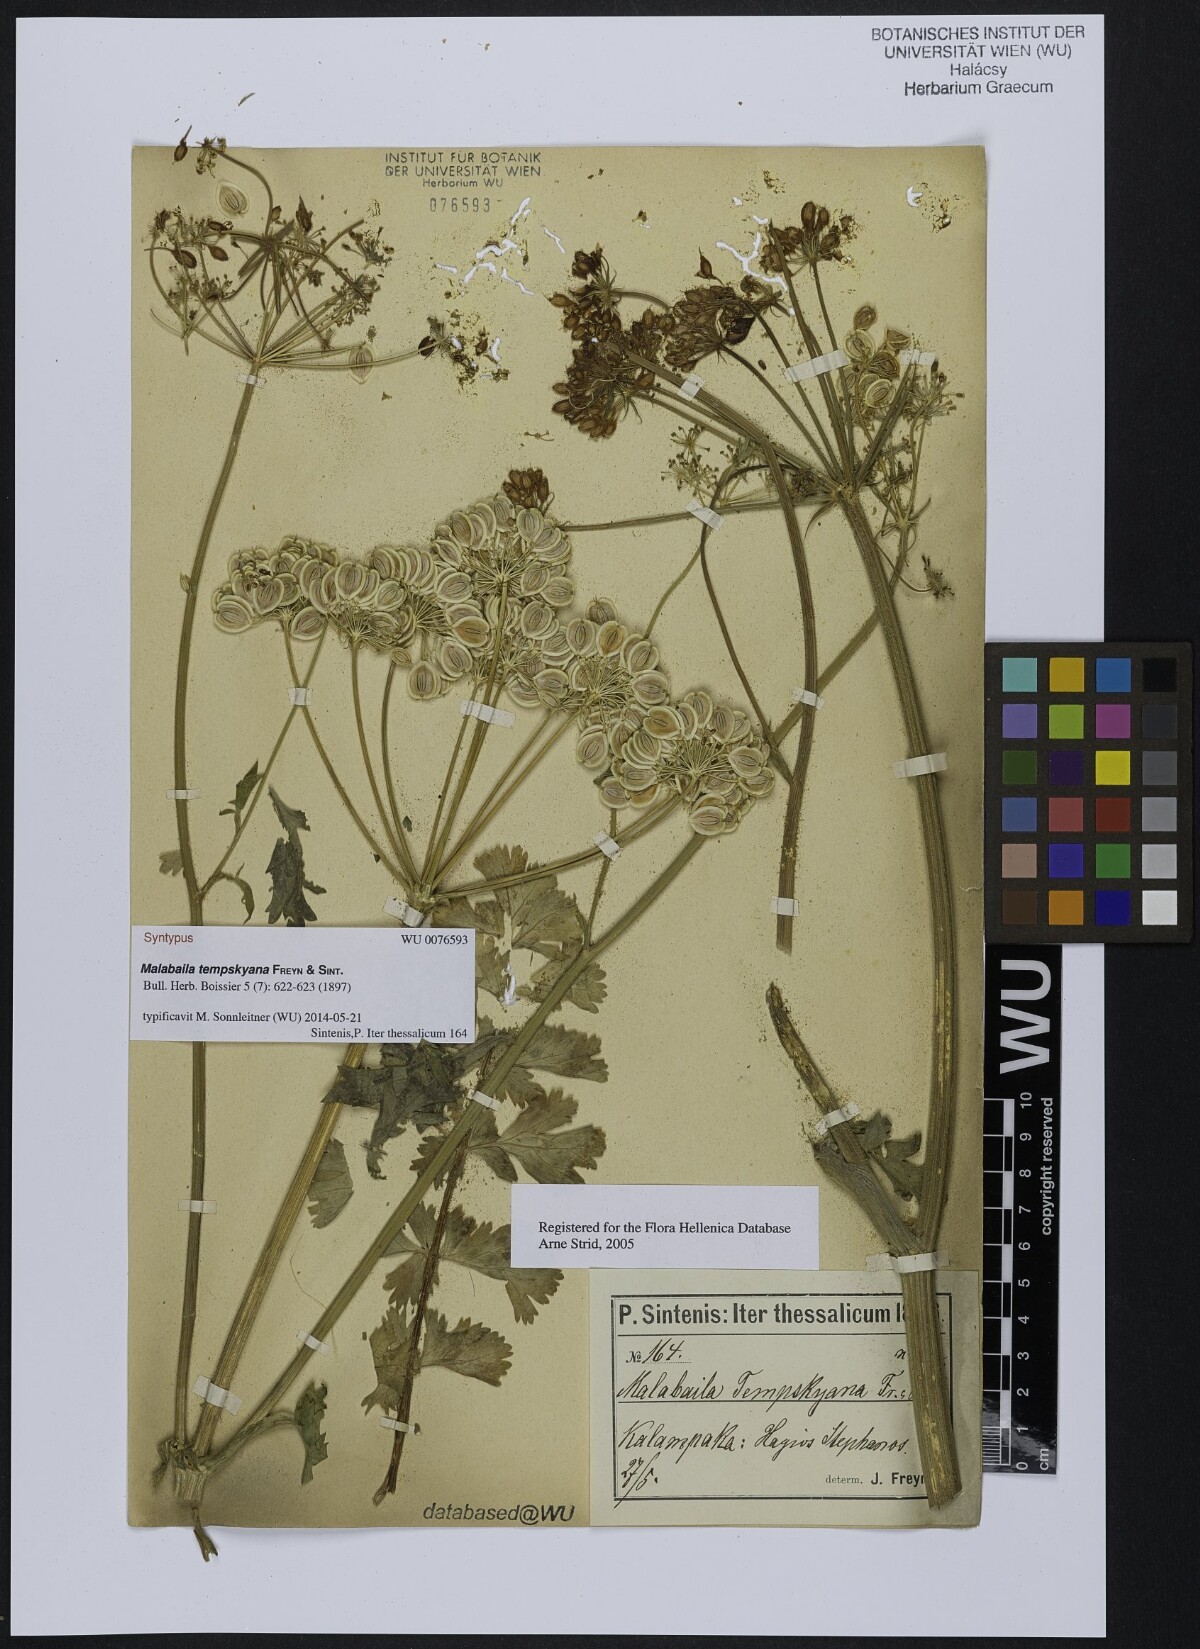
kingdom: Plantae
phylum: Tracheophyta
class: Magnoliopsida
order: Apiales
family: Apiaceae
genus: Leiotulus
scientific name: Leiotulus involucratus
